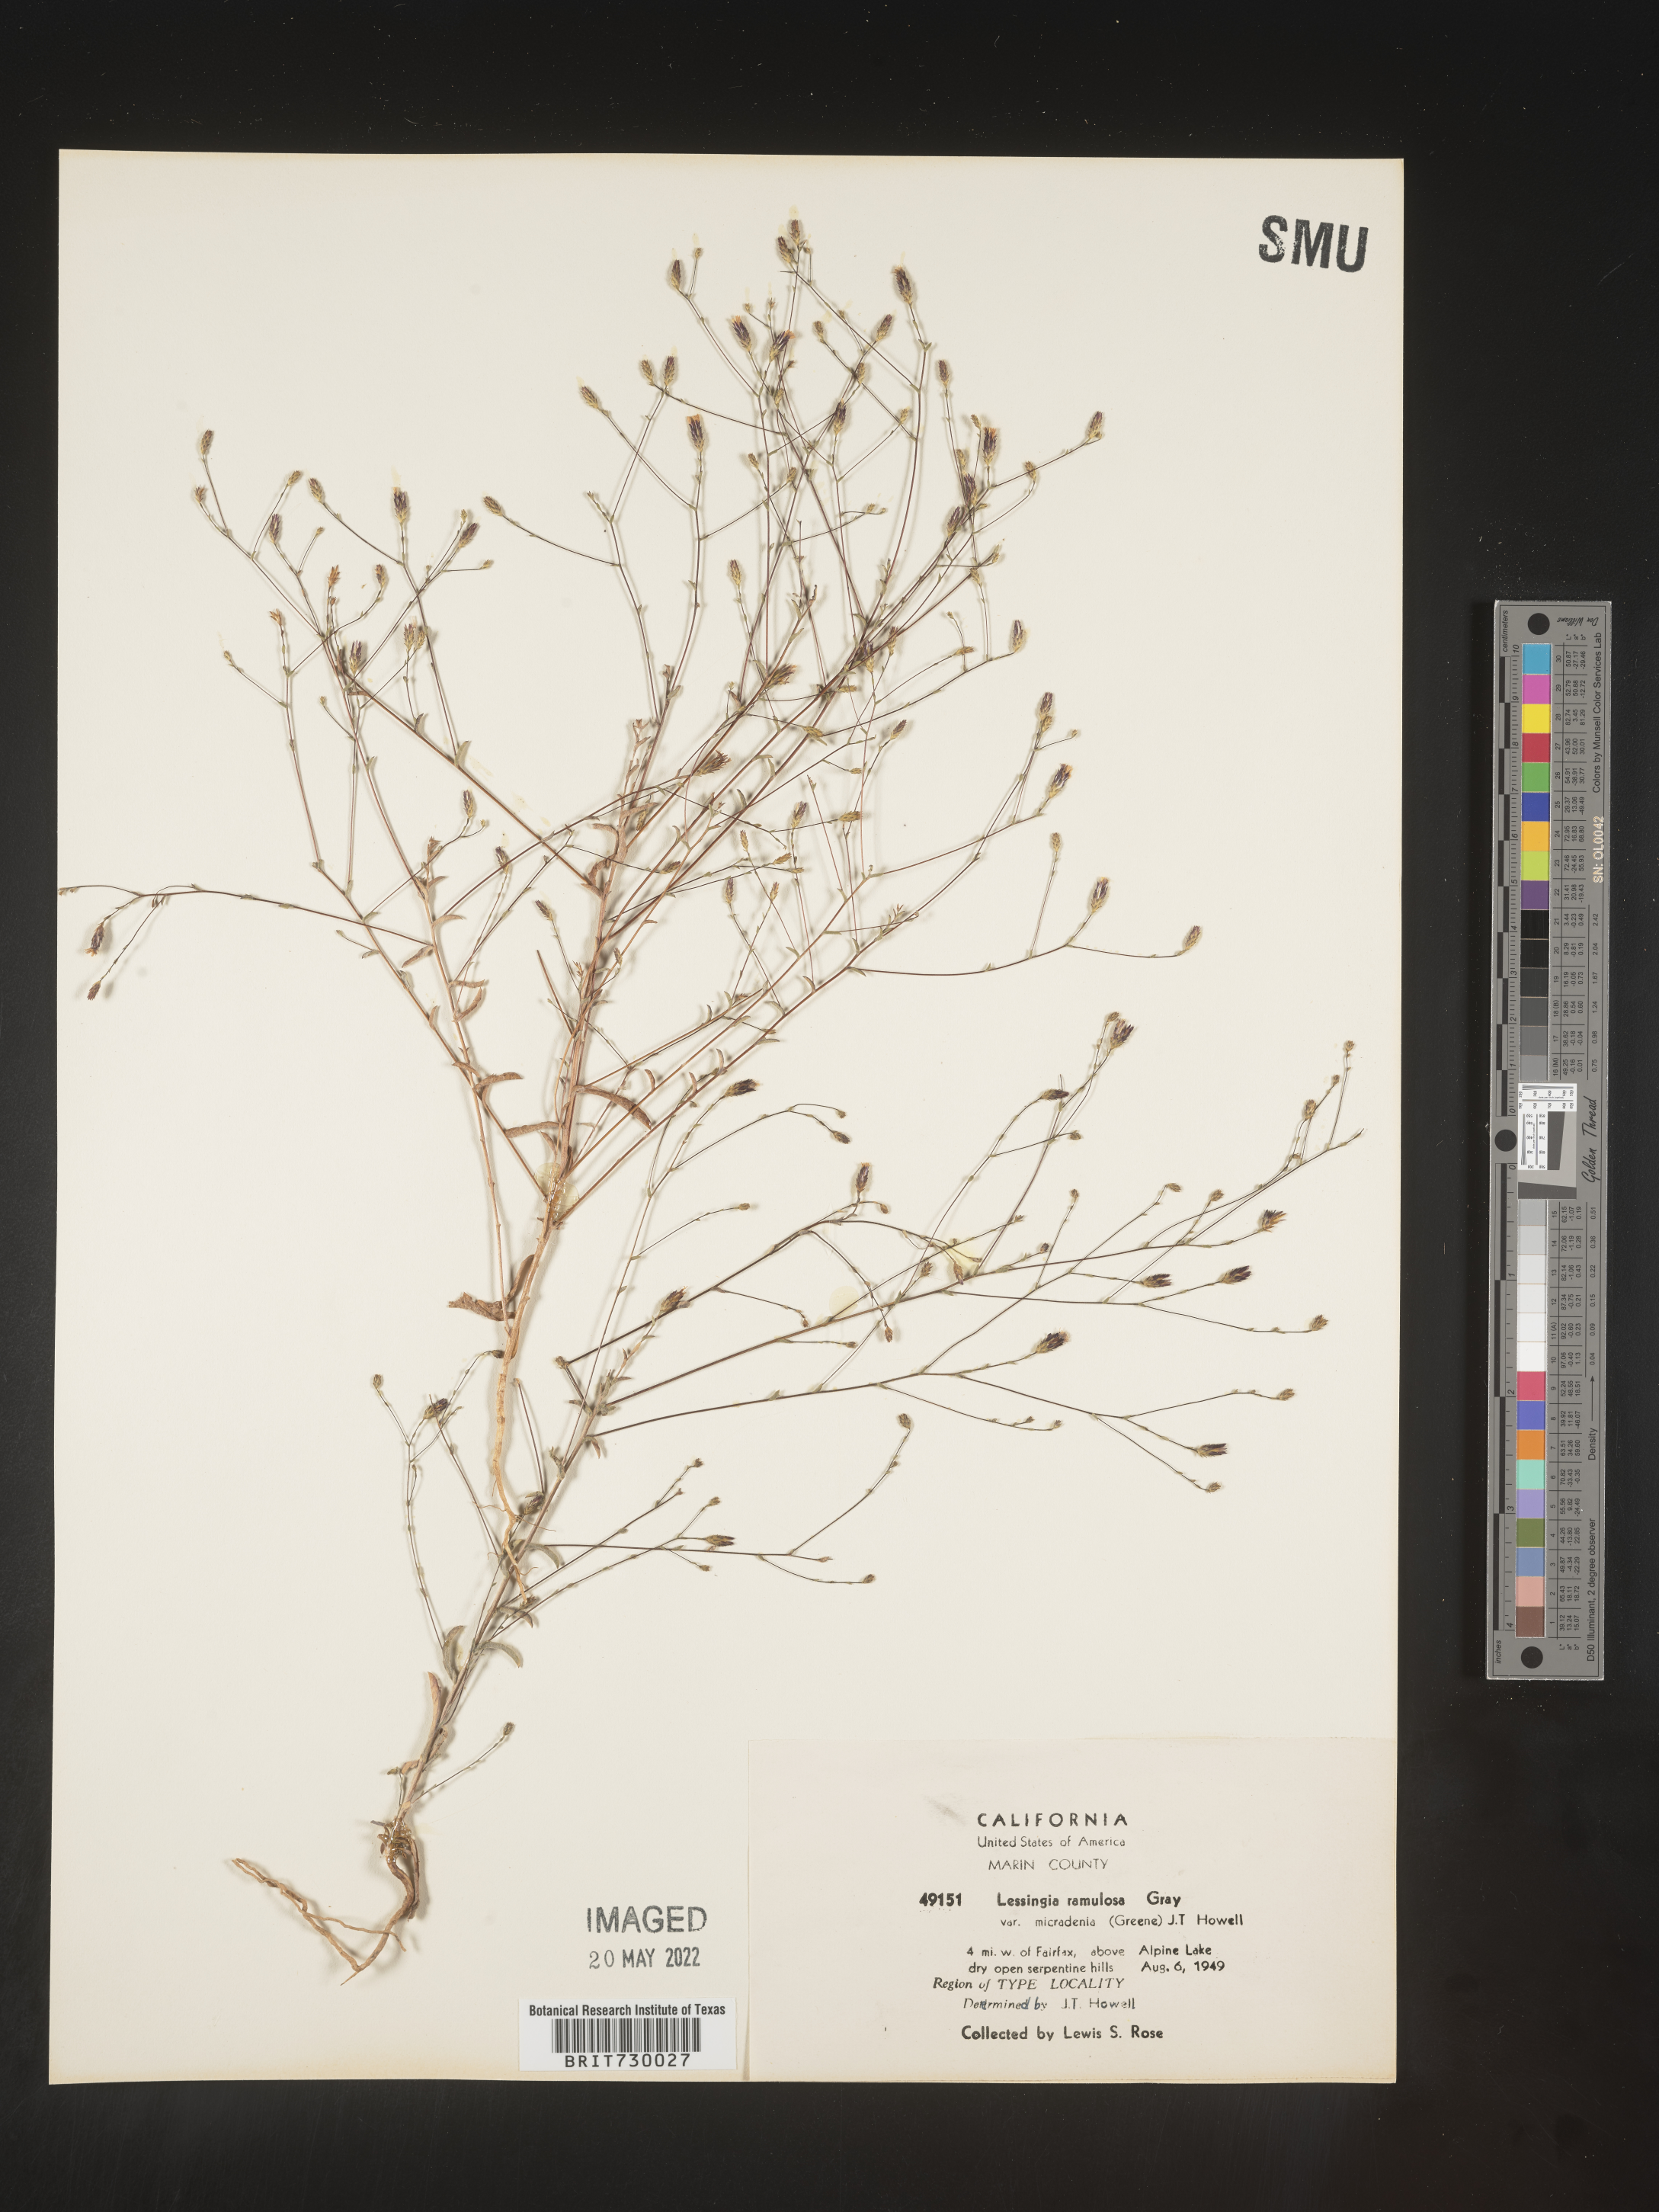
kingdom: Plantae
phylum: Tracheophyta
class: Magnoliopsida
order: Asterales
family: Asteraceae
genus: Lessingia
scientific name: Lessingia
